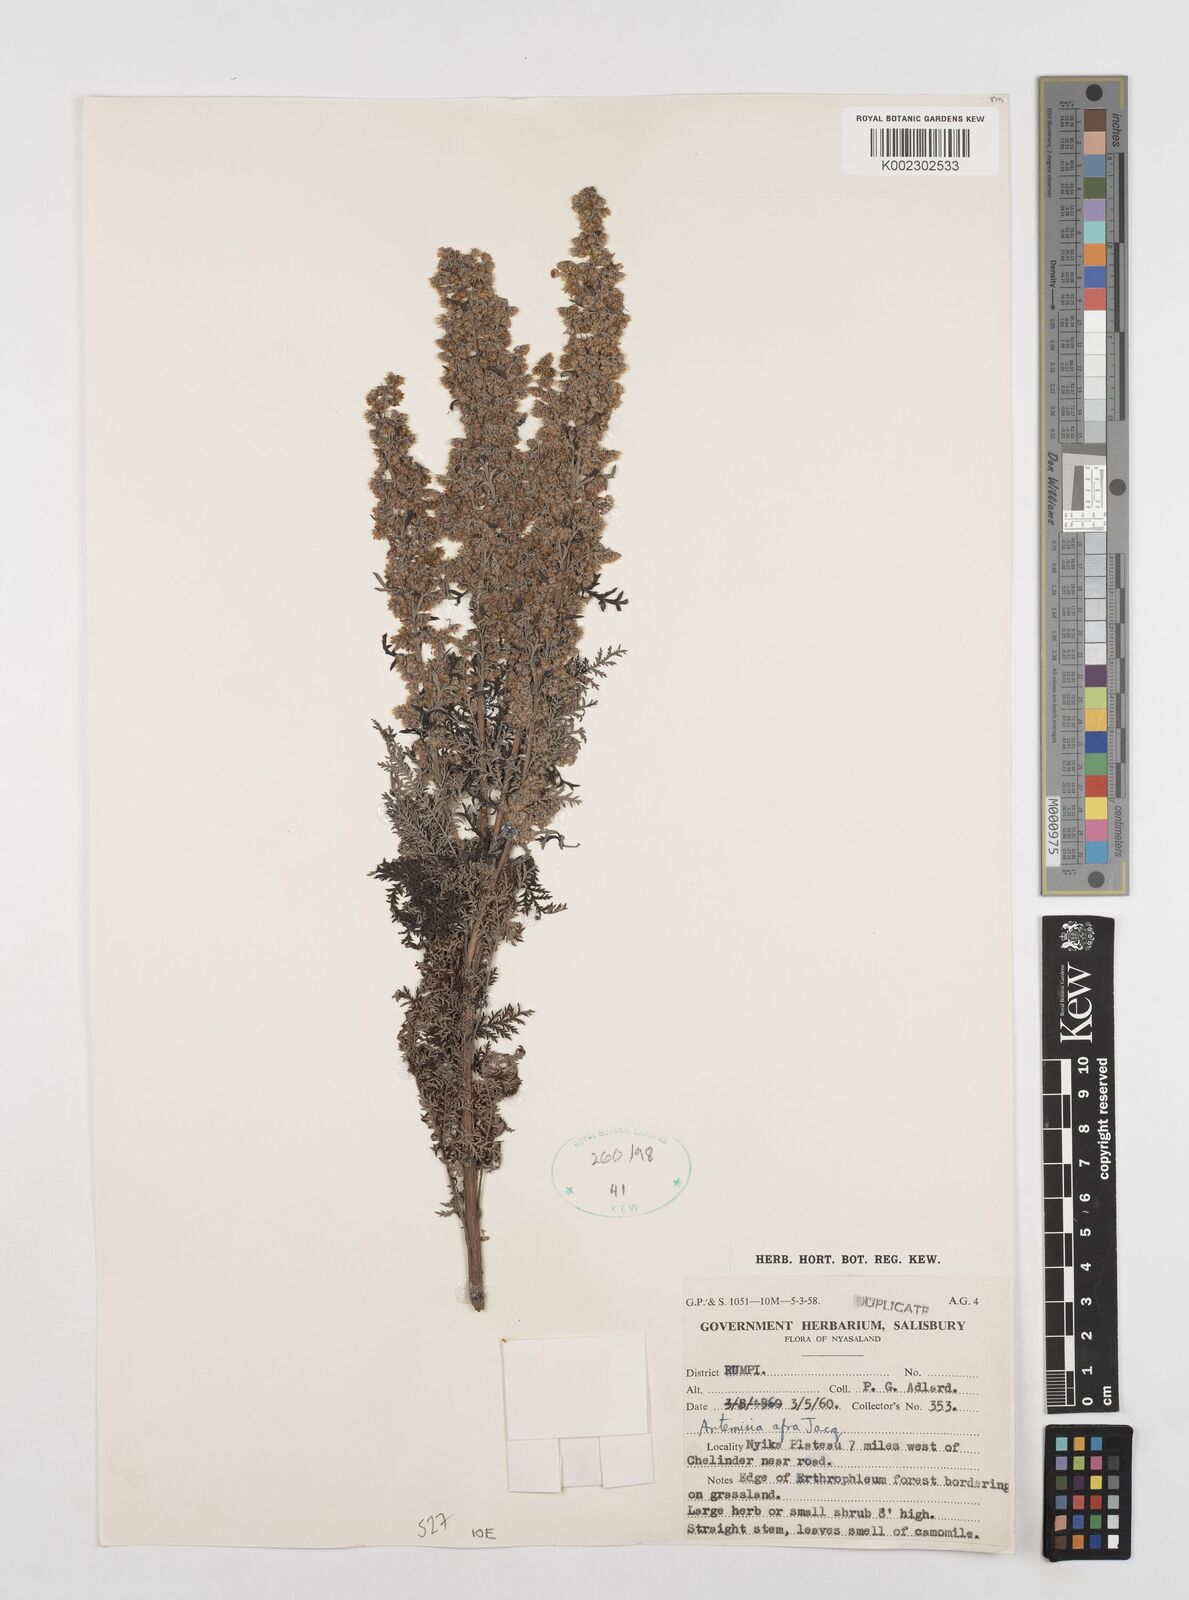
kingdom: Plantae
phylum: Tracheophyta
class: Magnoliopsida
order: Asterales
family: Asteraceae
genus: Artemisia
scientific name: Artemisia afra
